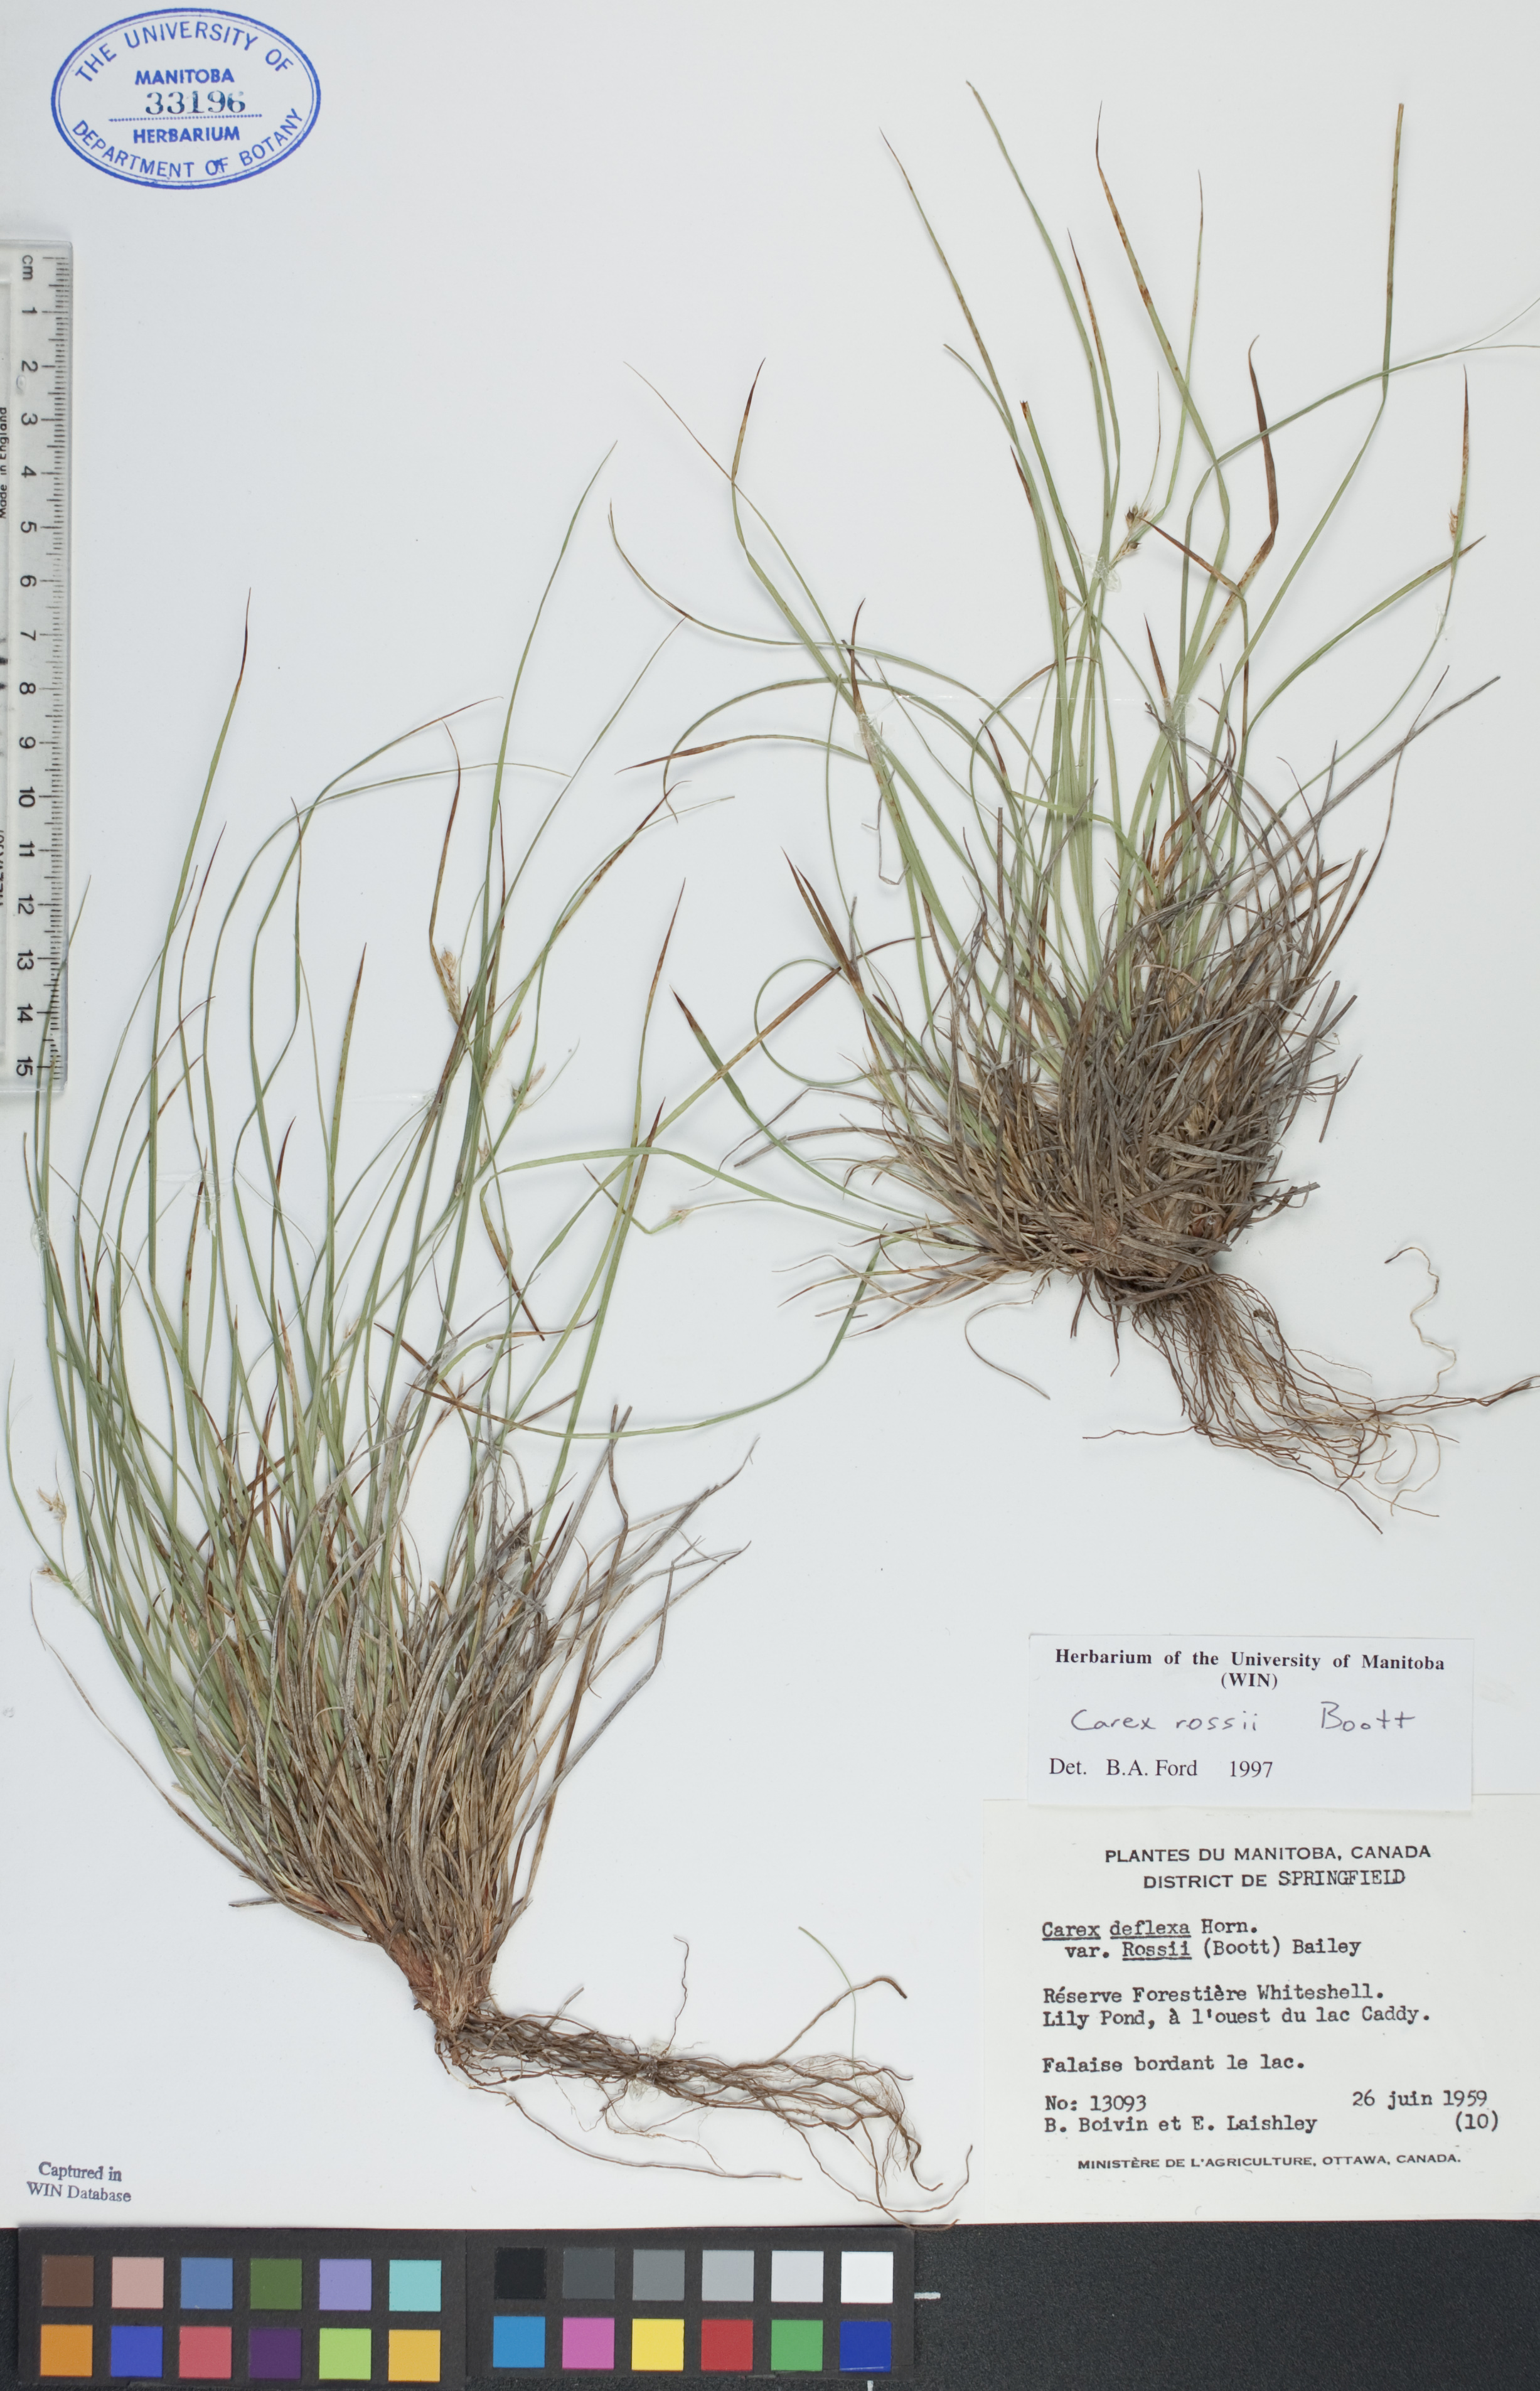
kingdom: Plantae
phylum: Tracheophyta
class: Liliopsida
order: Poales
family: Cyperaceae
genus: Carex
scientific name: Carex rossii
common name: Ross' sedge
